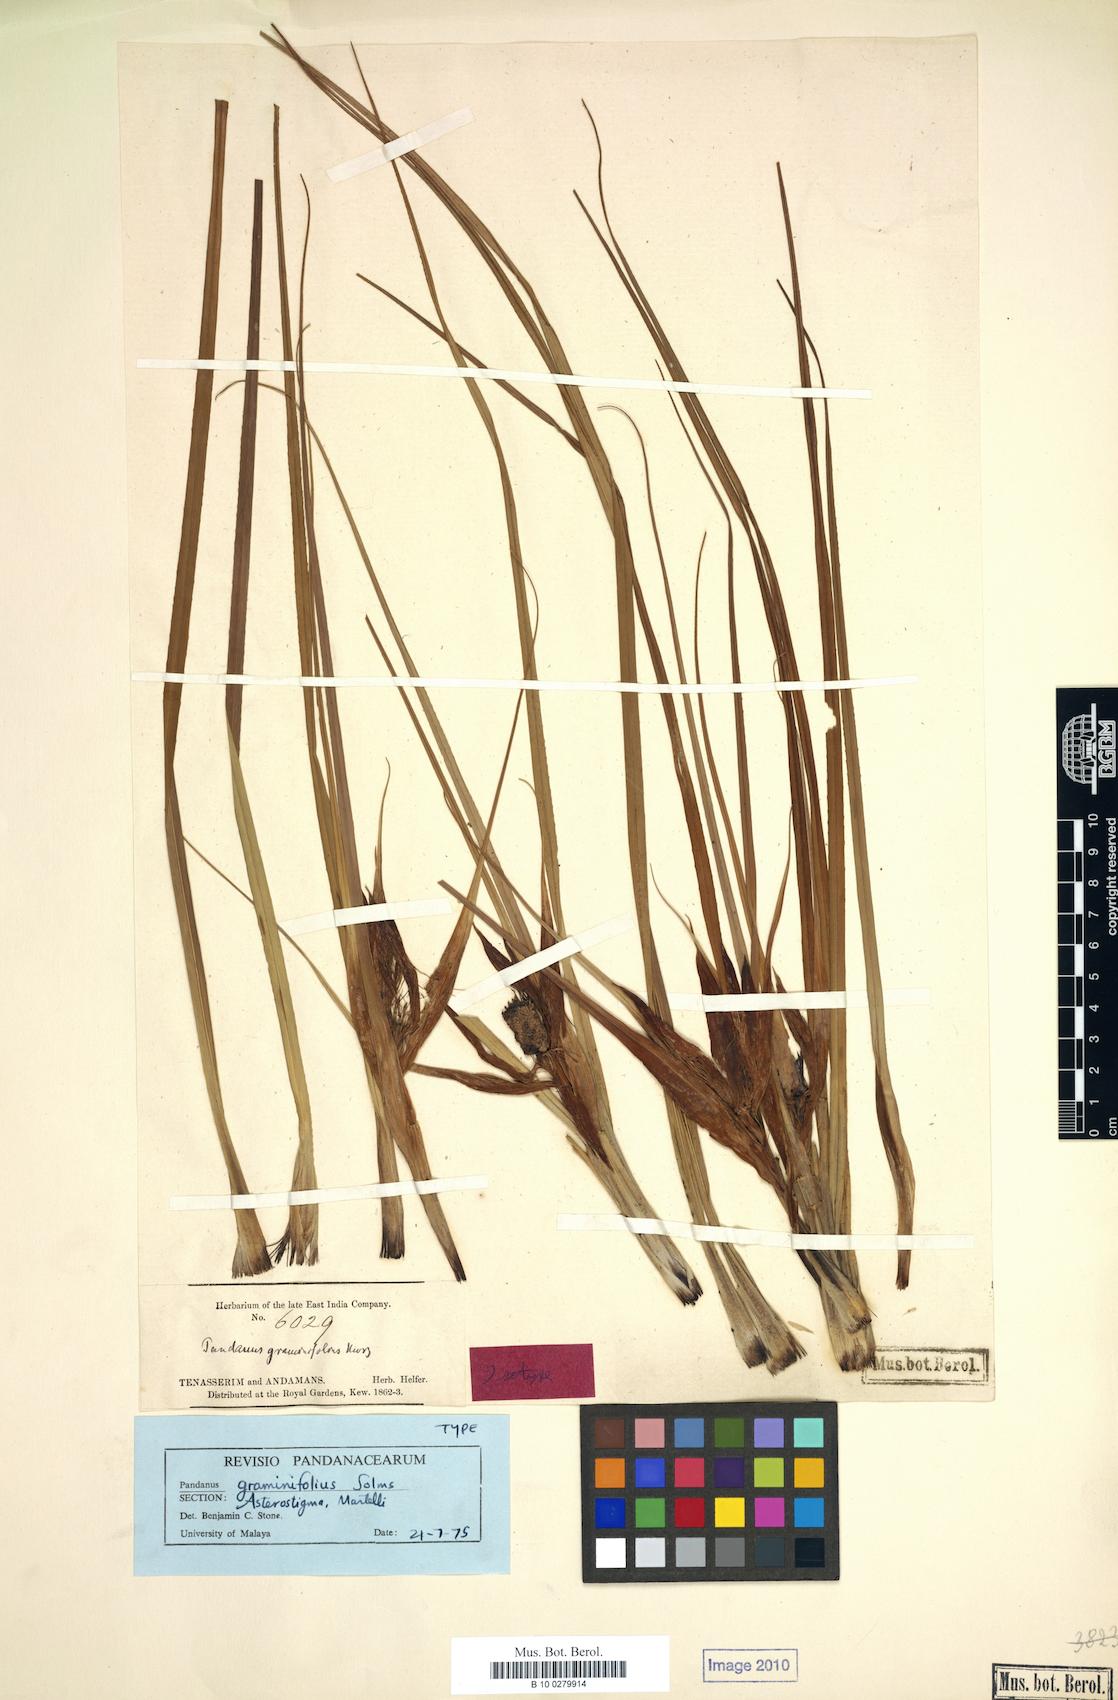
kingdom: Plantae
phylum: Tracheophyta
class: Liliopsida
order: Pandanales
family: Pandanaceae
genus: Pandanus
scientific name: Pandanus graminifolius
